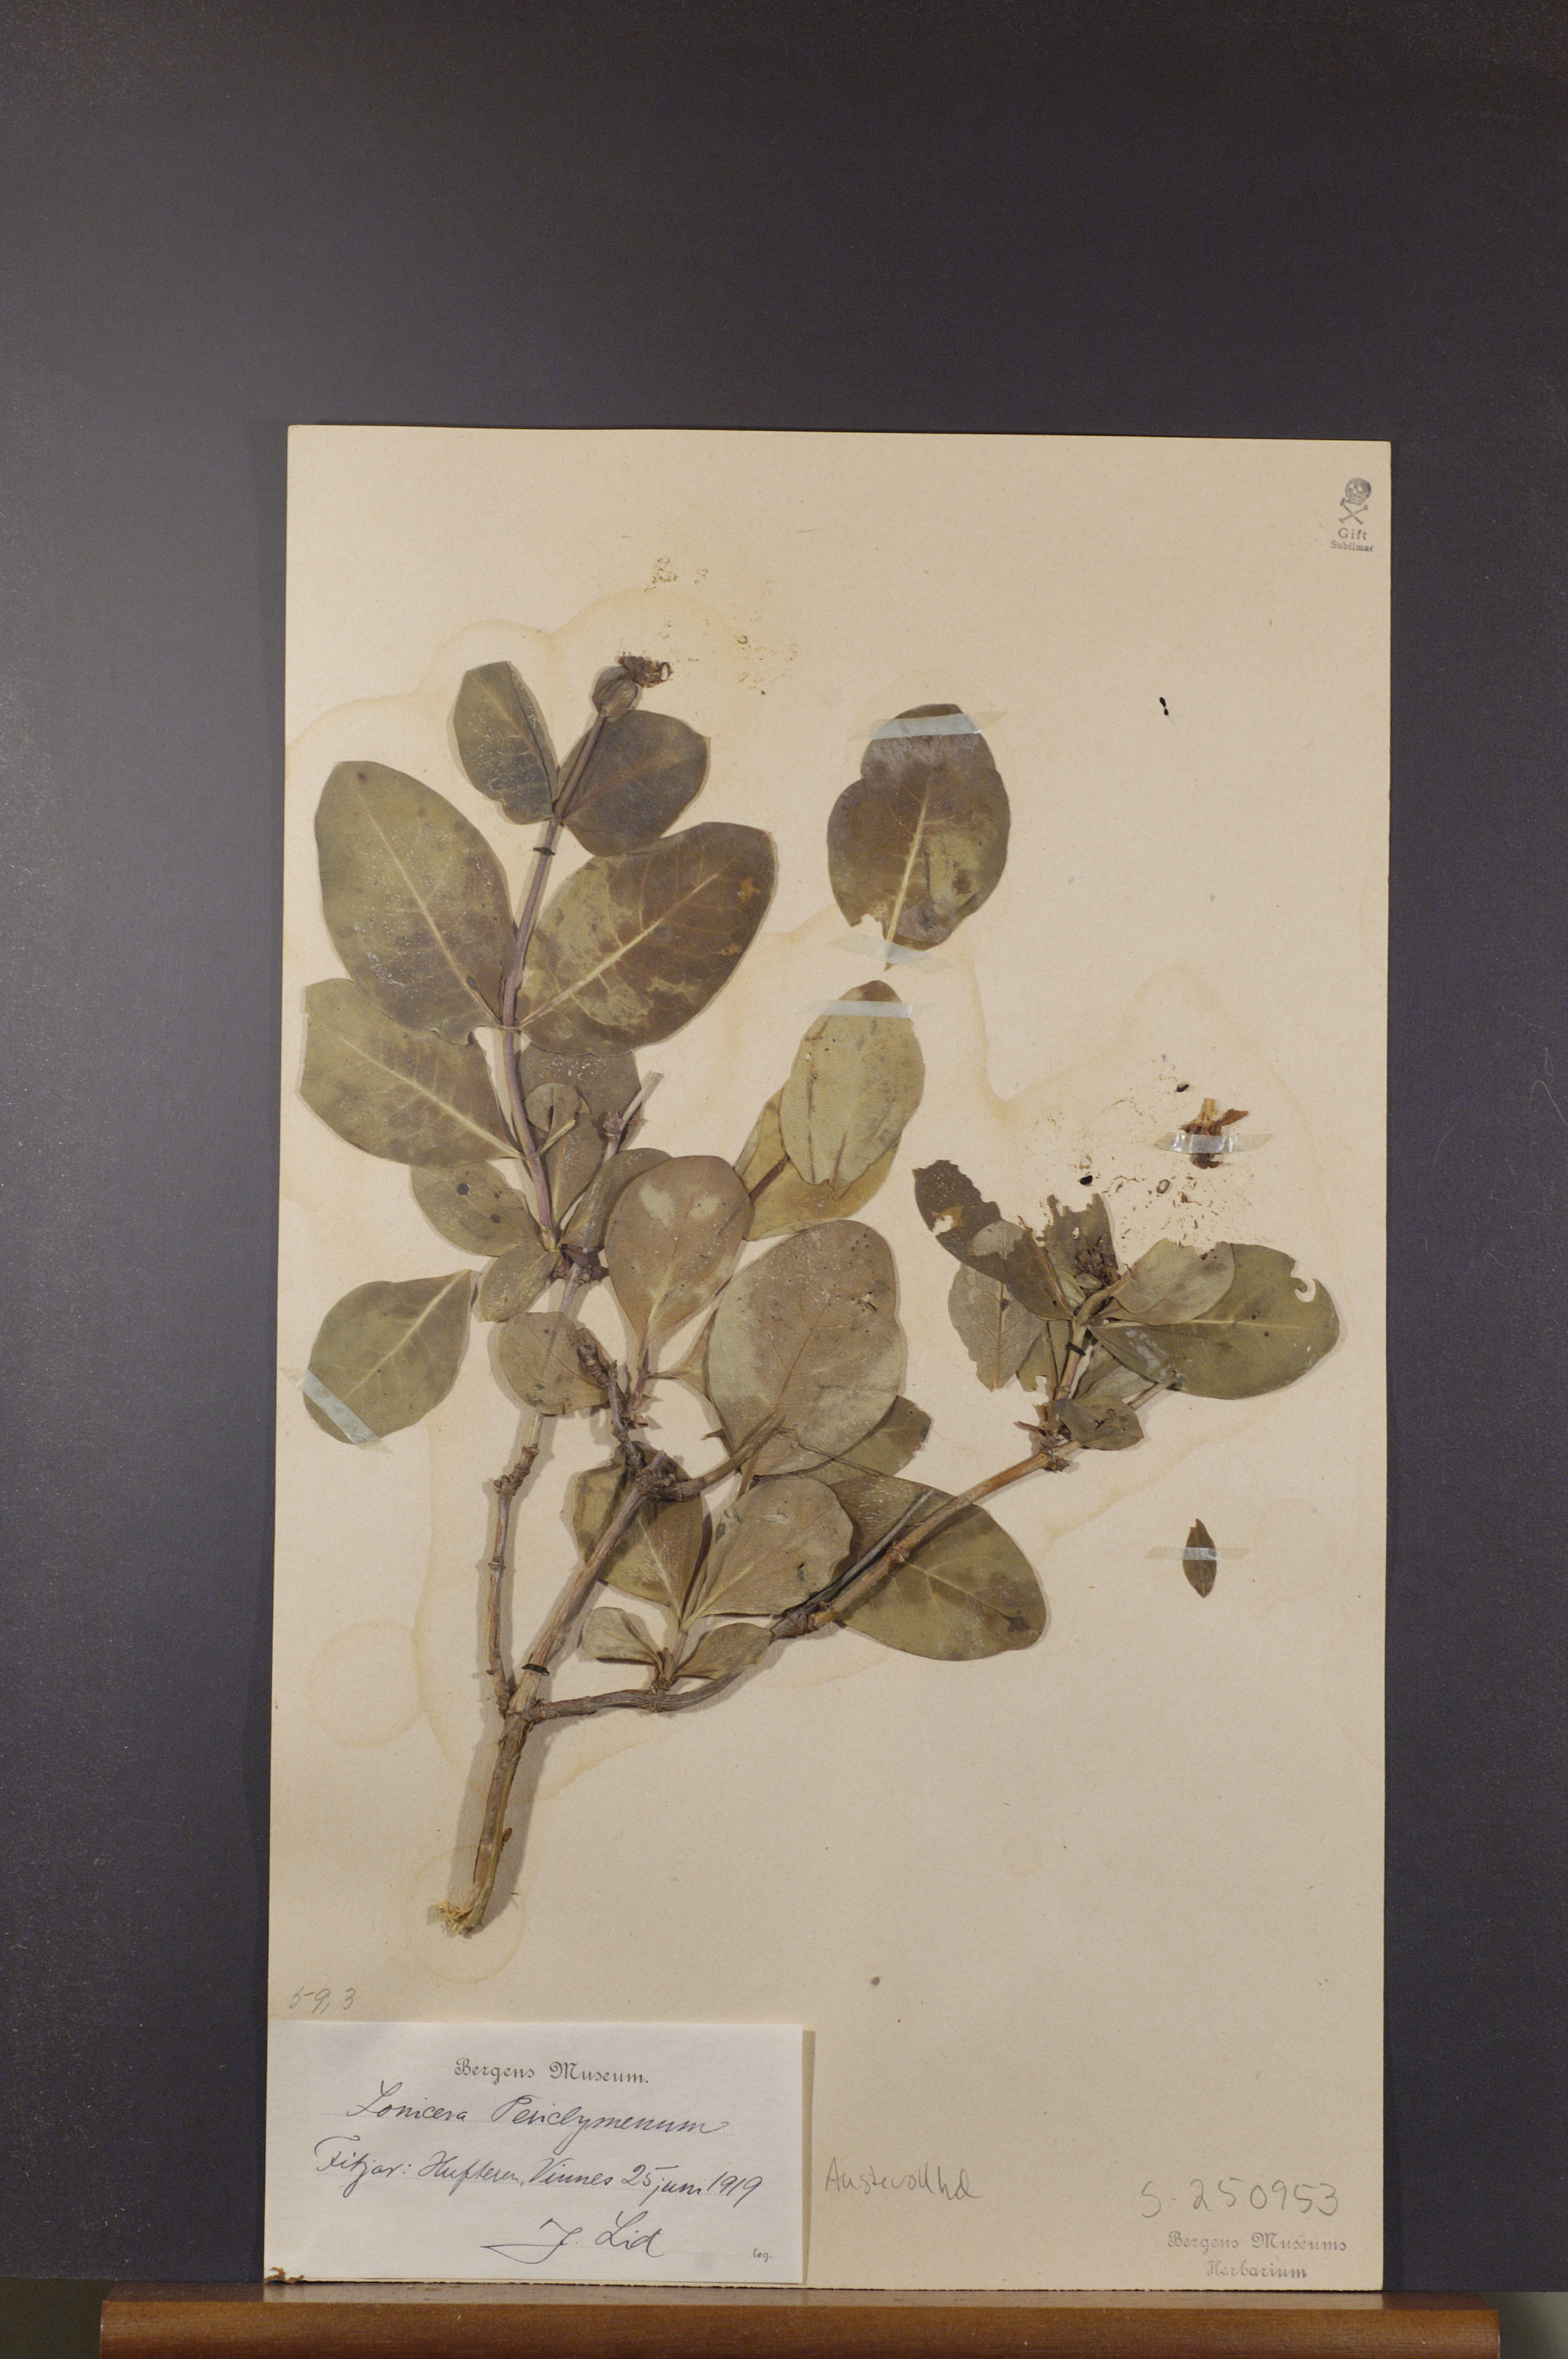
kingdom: Plantae
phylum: Tracheophyta
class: Magnoliopsida
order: Dipsacales
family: Caprifoliaceae
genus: Lonicera
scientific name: Lonicera periclymenum
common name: European honeysuckle
